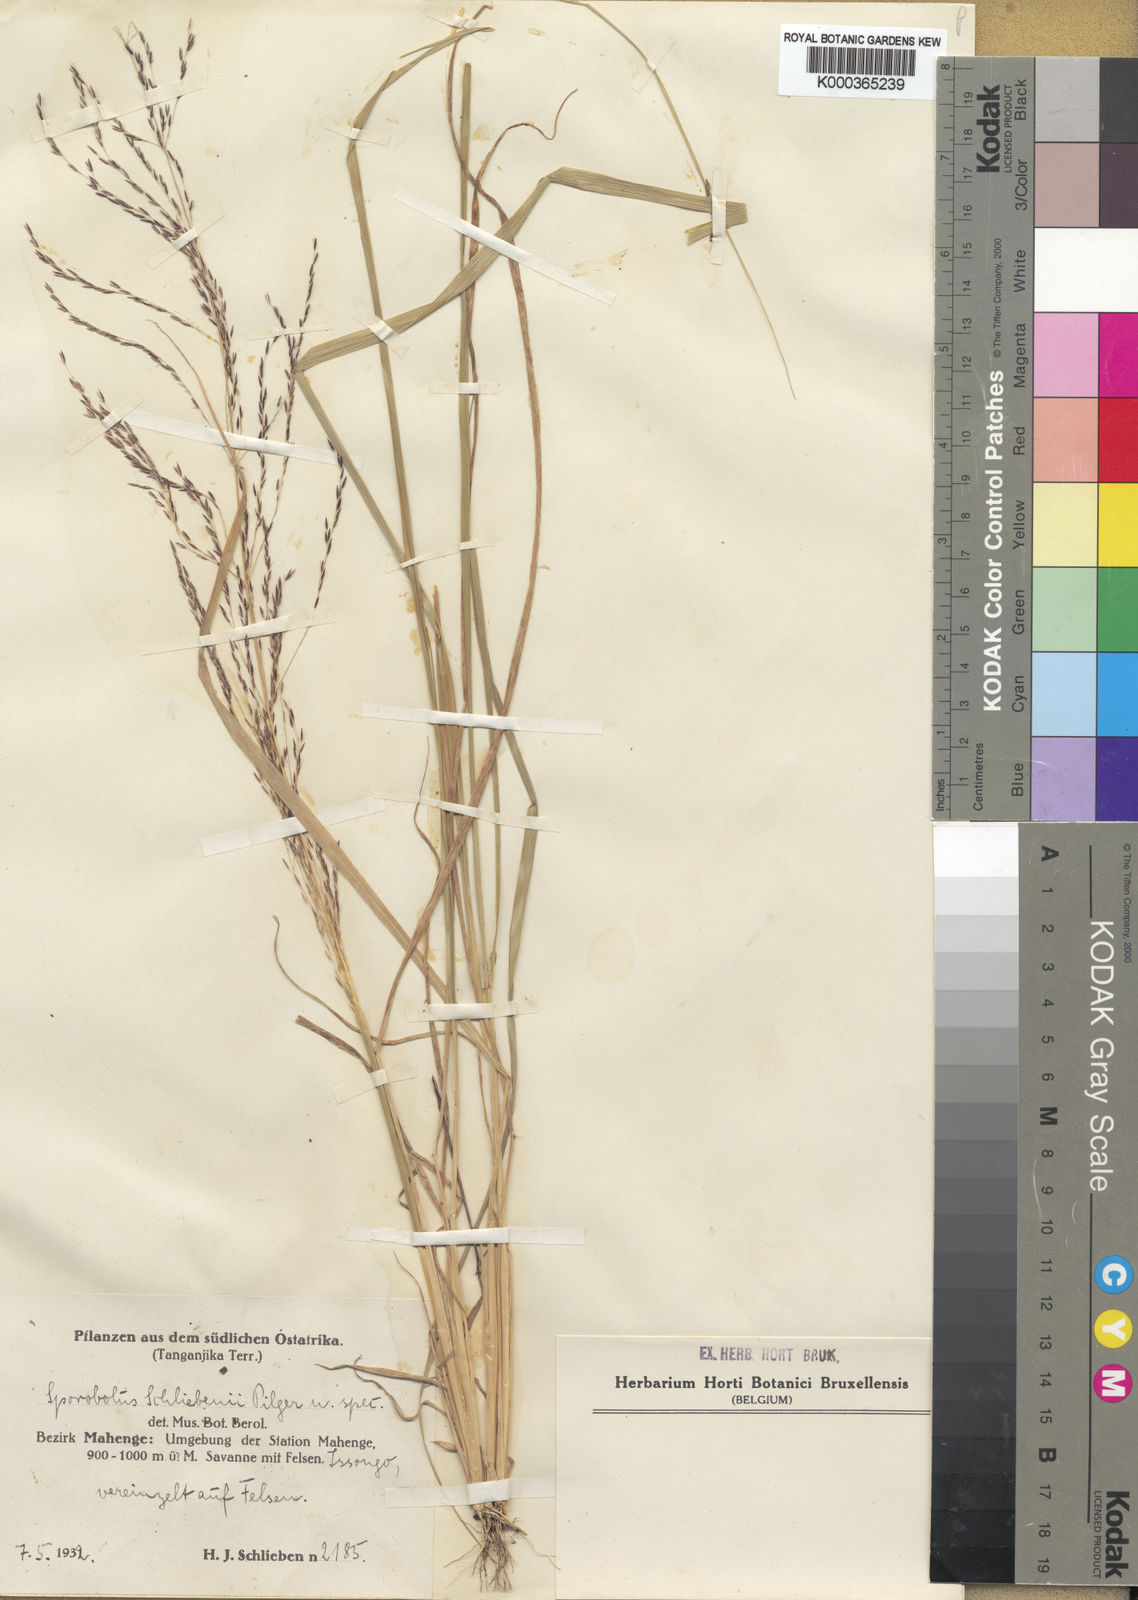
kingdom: Plantae
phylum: Tracheophyta
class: Liliopsida
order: Poales
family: Poaceae
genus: Sporobolus
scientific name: Sporobolus sanguineus
